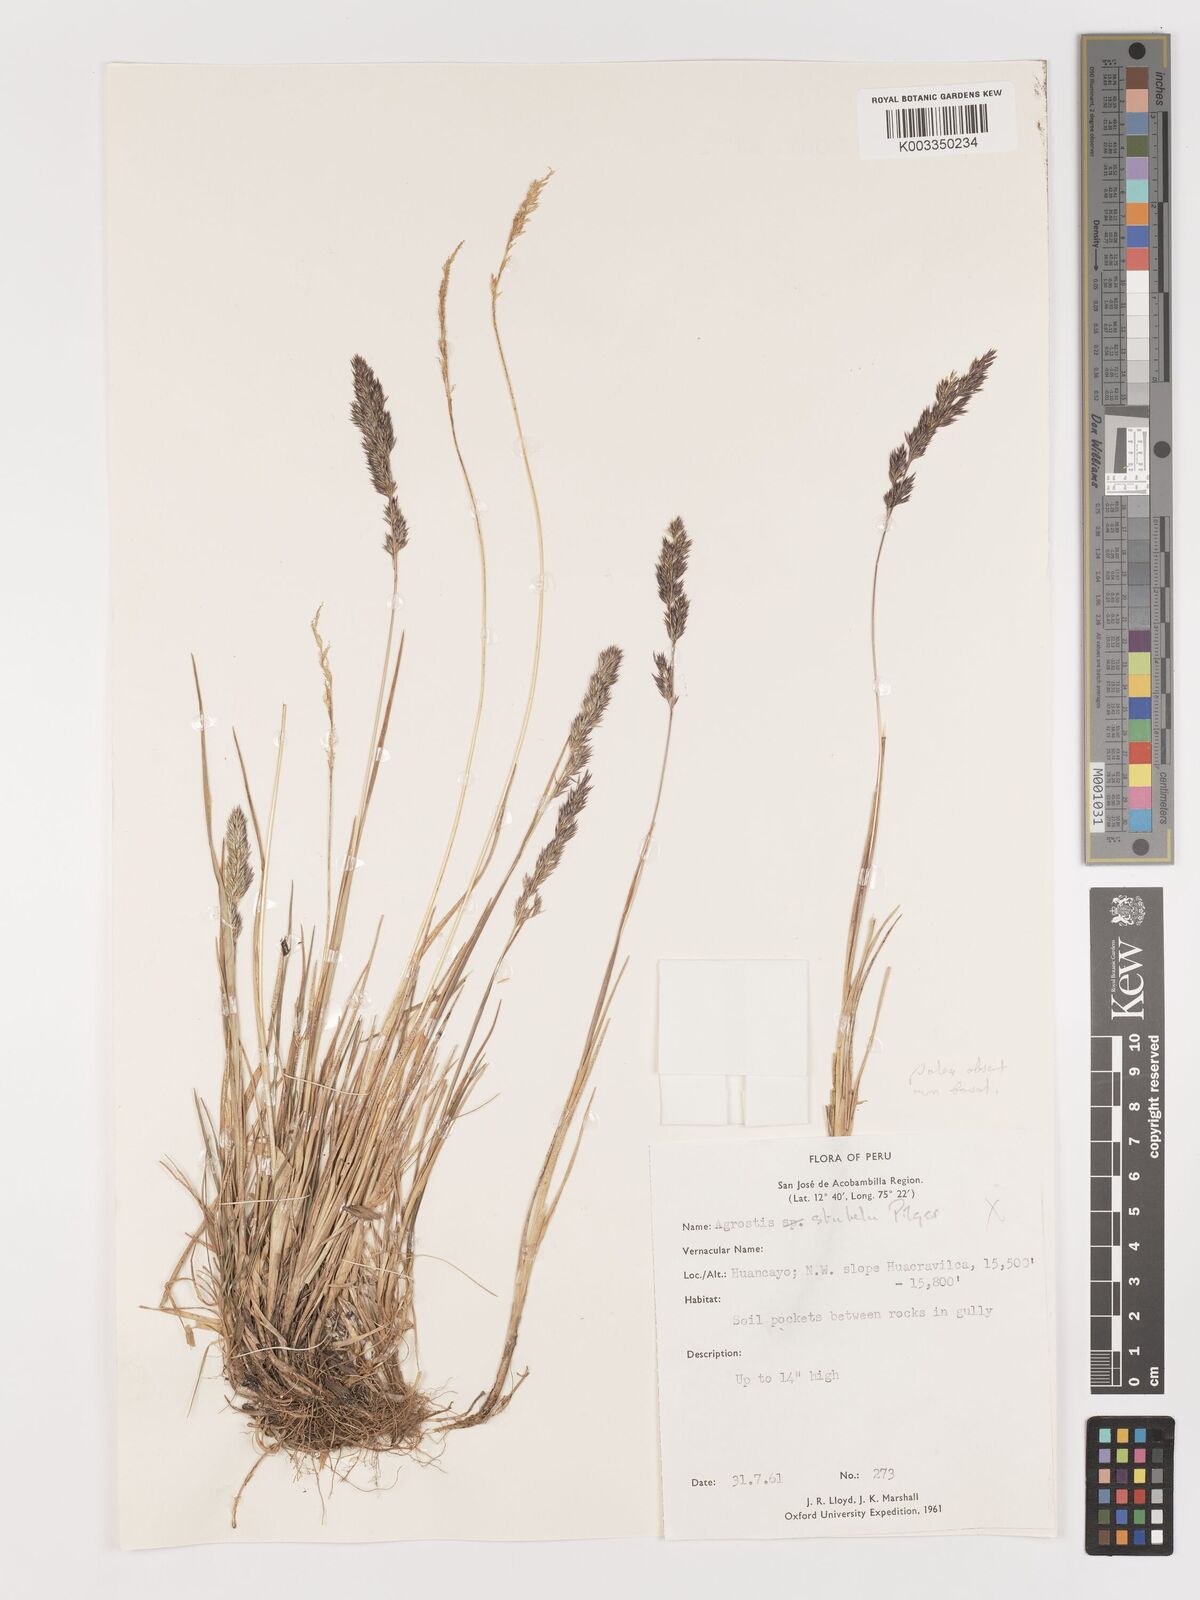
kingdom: Plantae
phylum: Tracheophyta
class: Liliopsida
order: Poales
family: Poaceae
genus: Agrostis
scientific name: Agrostis
